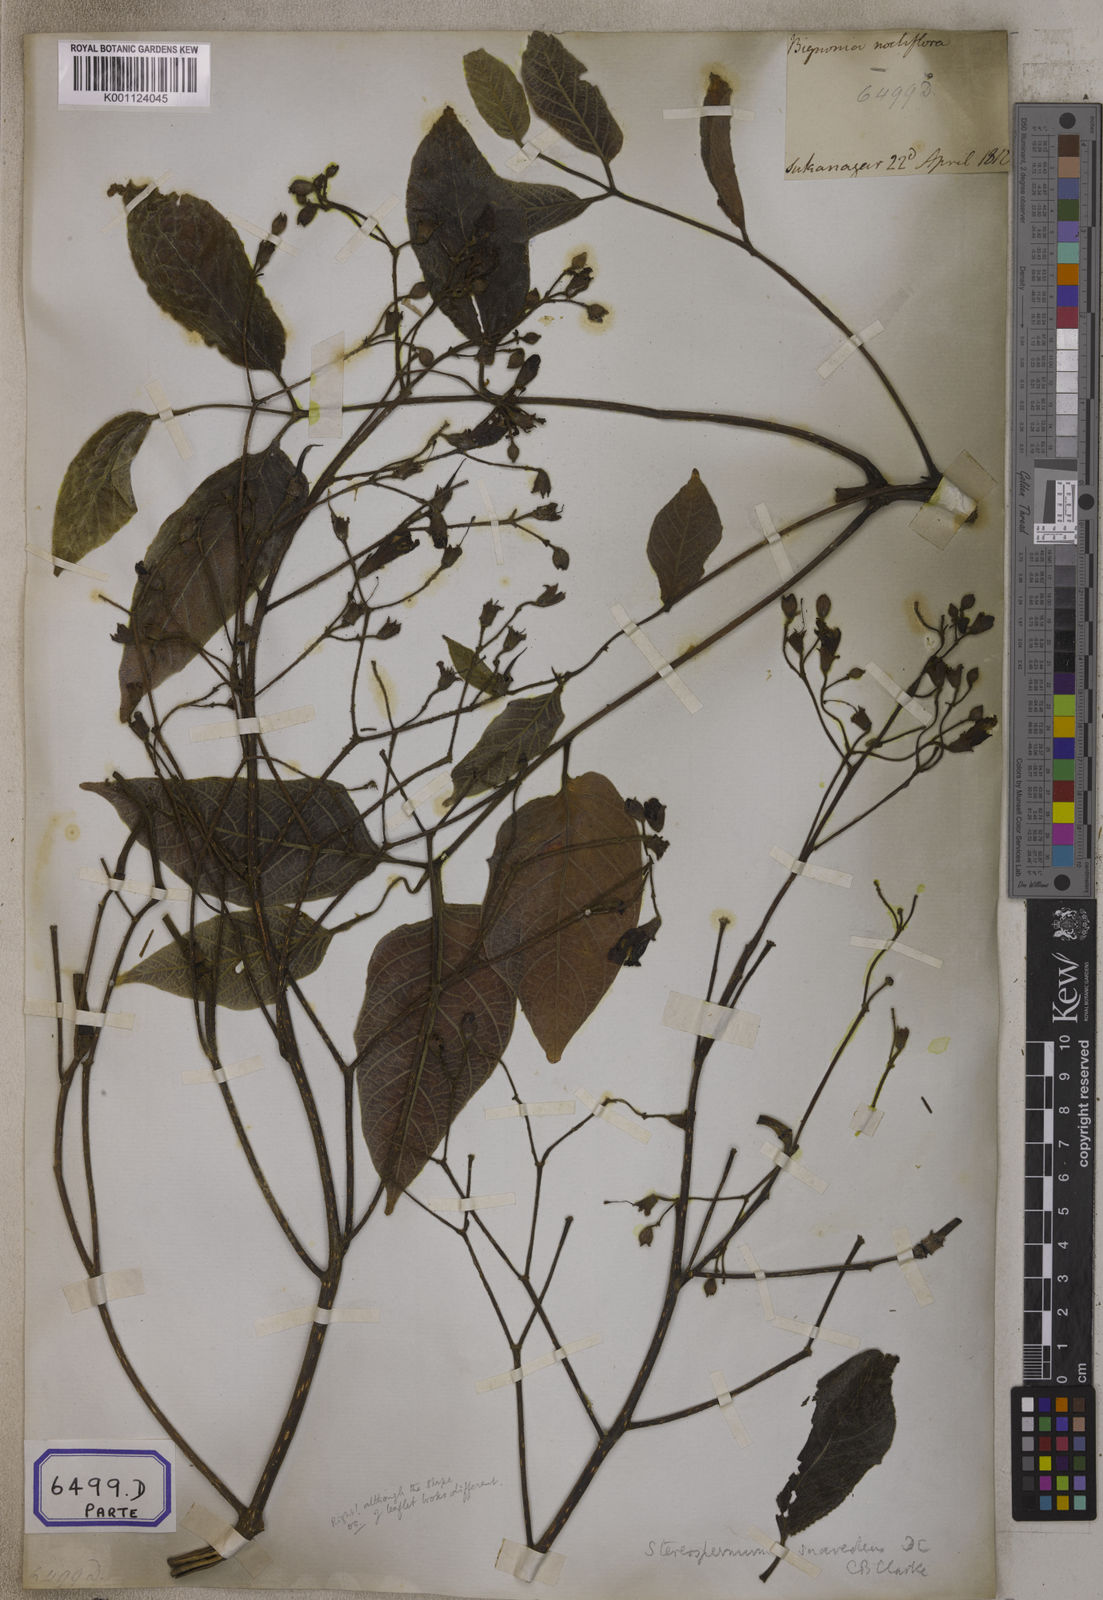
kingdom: Plantae
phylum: Tracheophyta
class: Magnoliopsida
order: Lamiales
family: Bignoniaceae
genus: Stereospermum
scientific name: Stereospermum chelonoides
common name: Fragrant padritree
